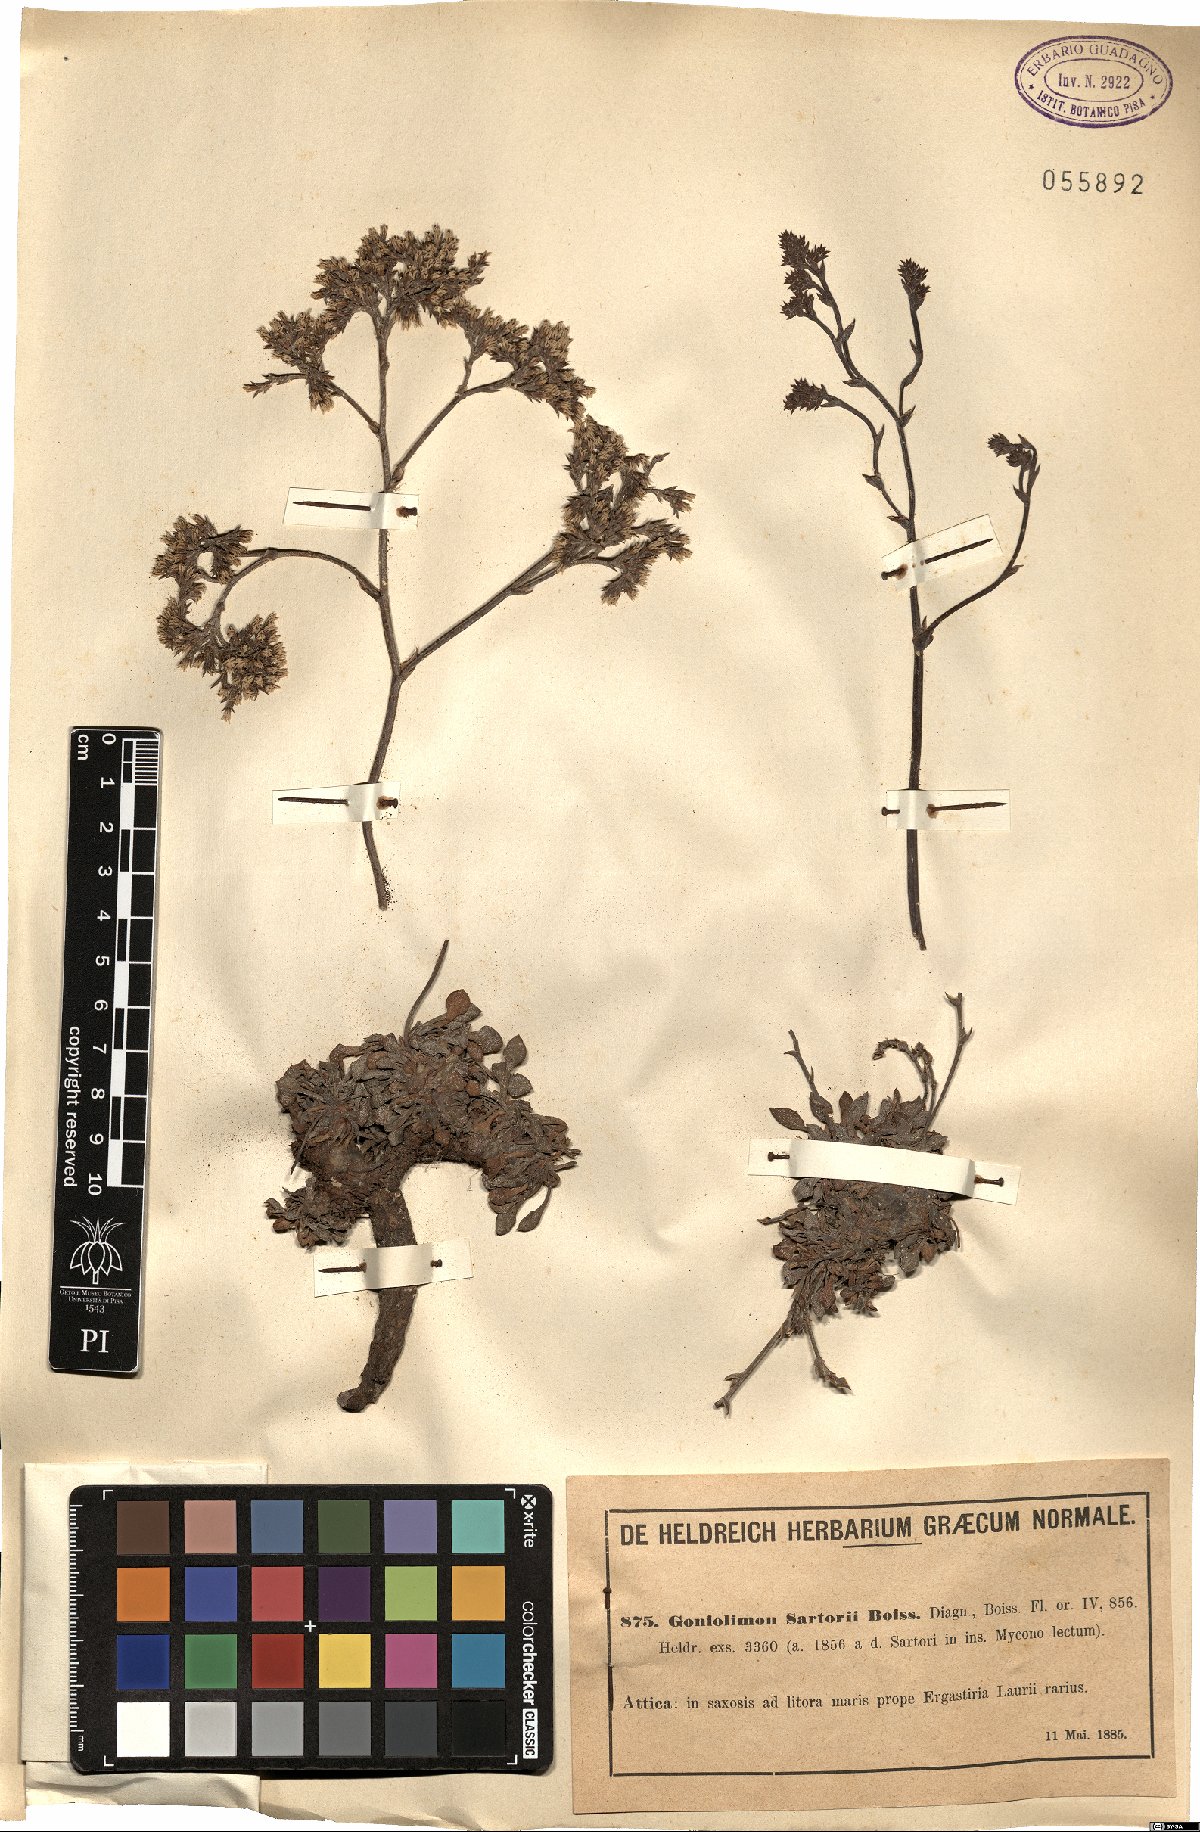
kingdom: Plantae
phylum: Tracheophyta
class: Magnoliopsida
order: Caryophyllales
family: Plumbaginaceae
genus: Goniolimon
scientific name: Goniolimon sartorii
